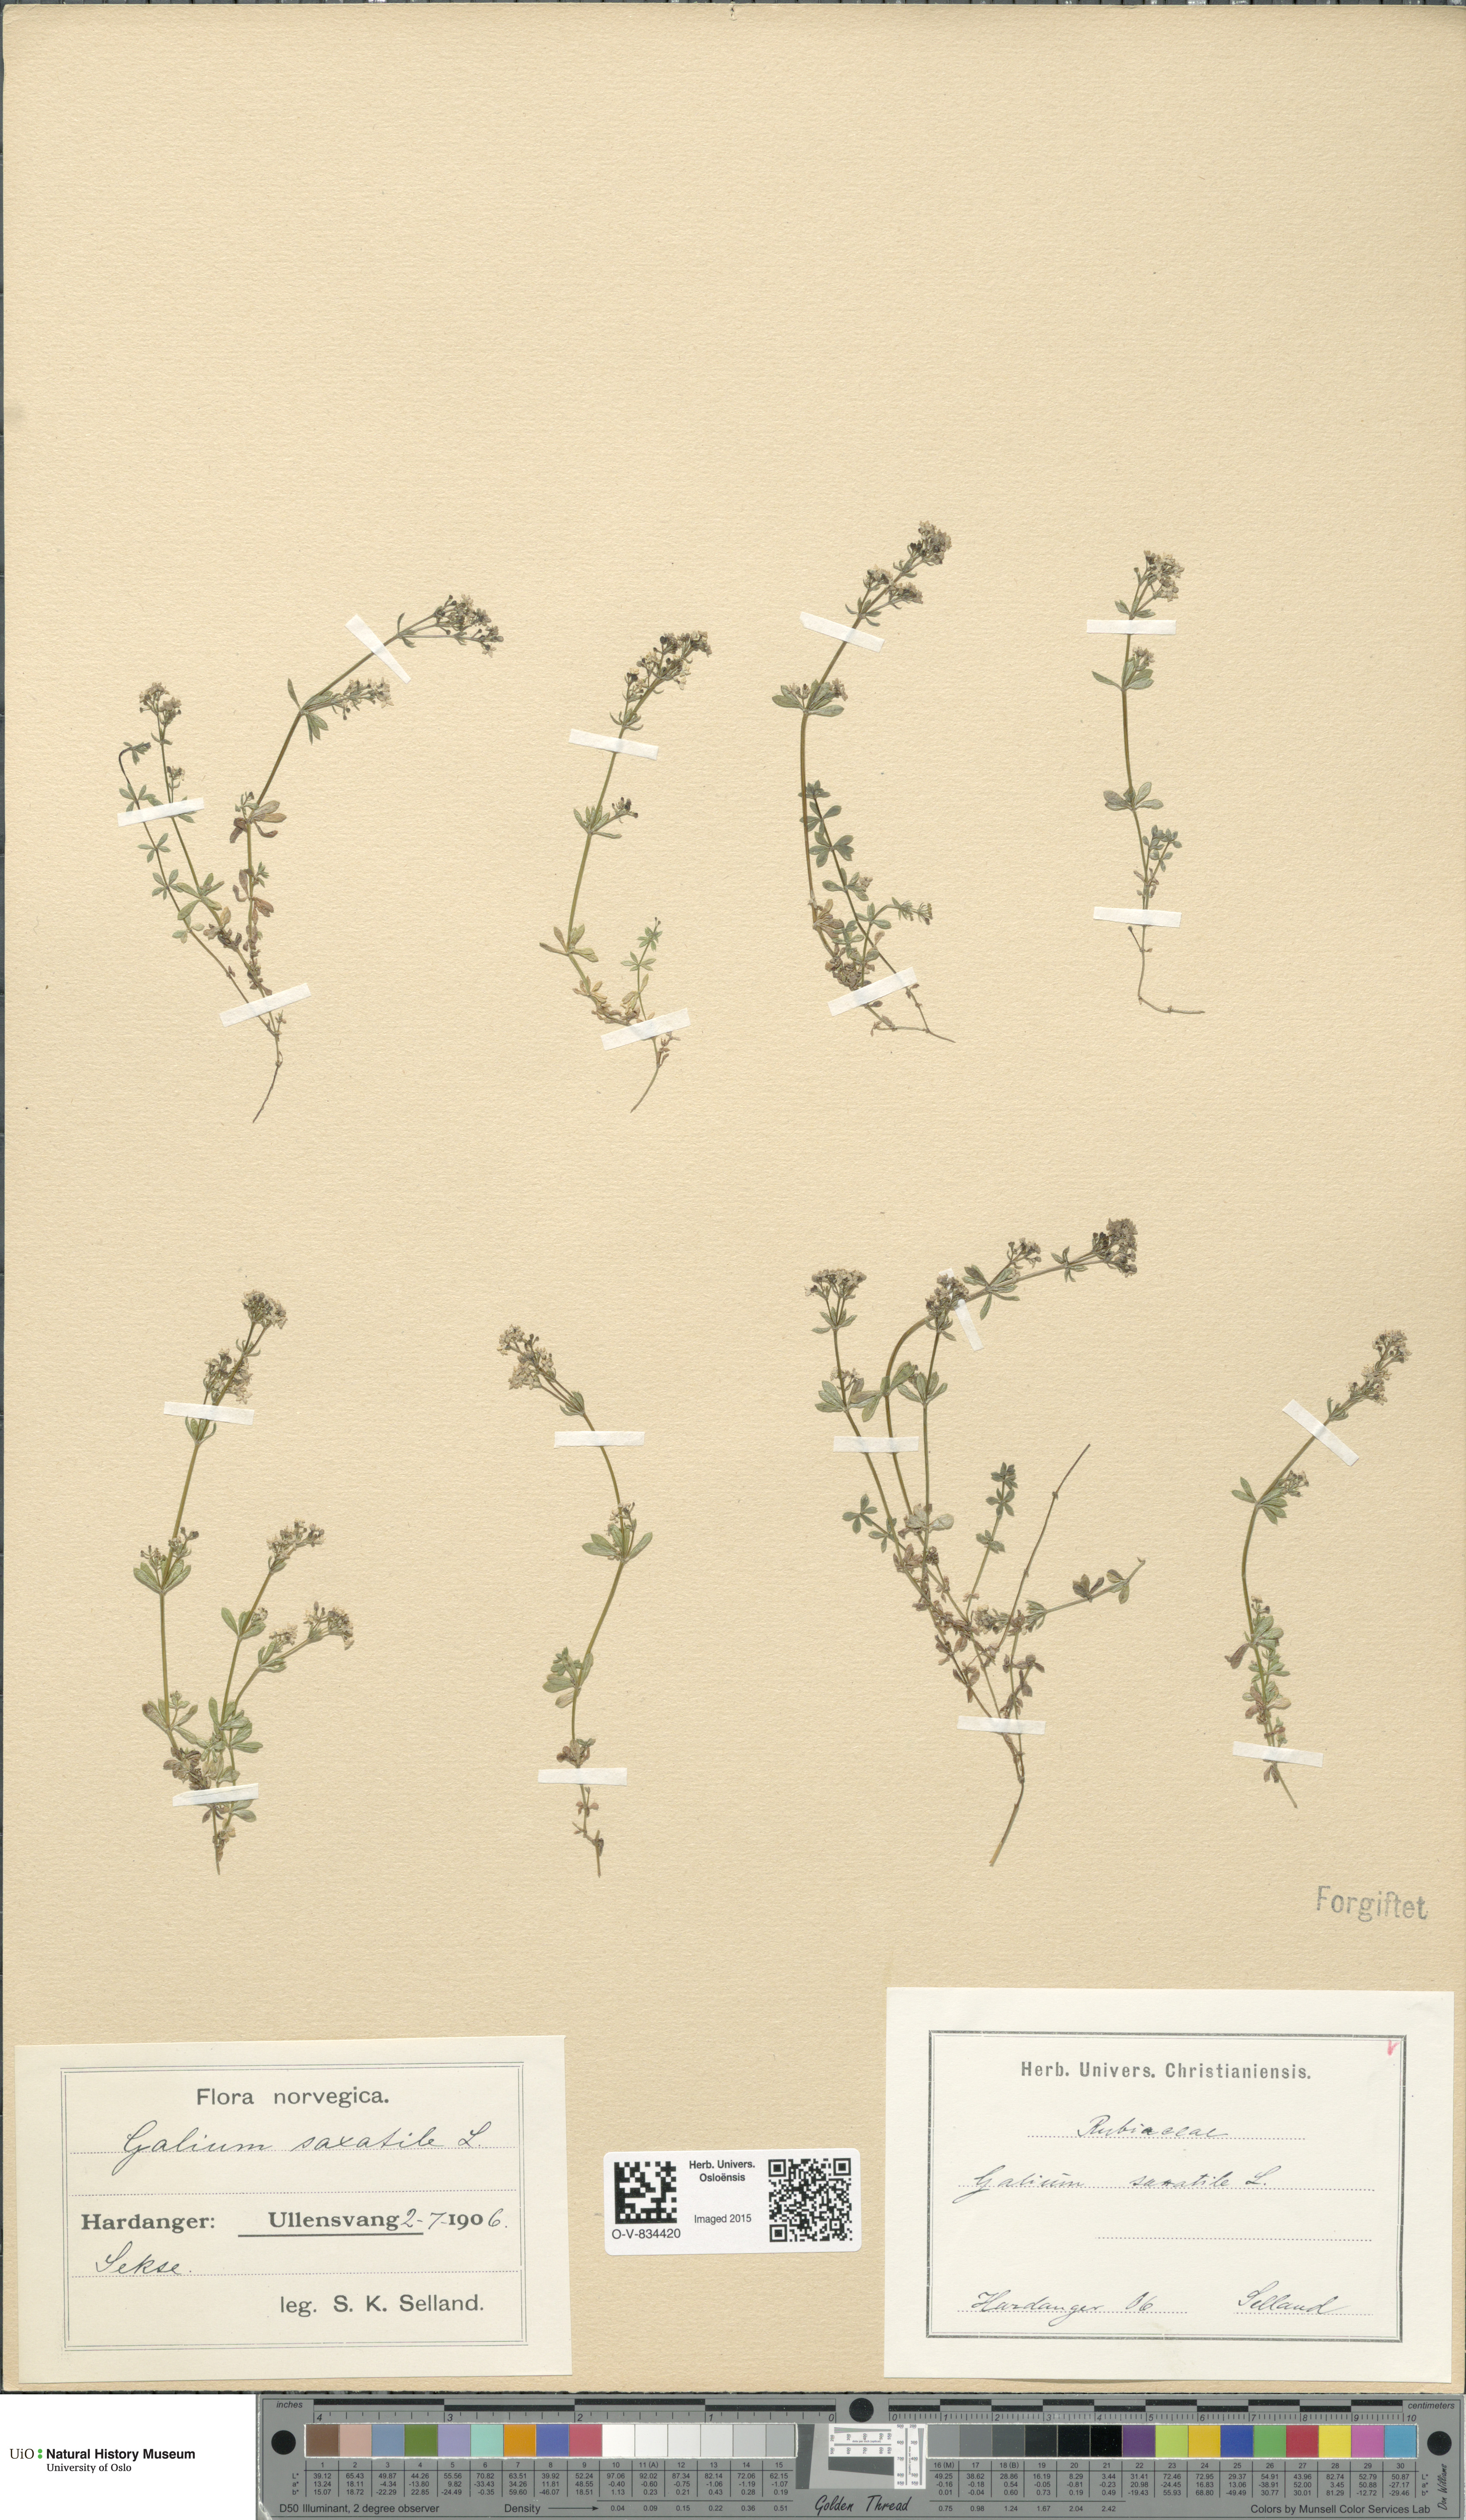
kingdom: Plantae
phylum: Tracheophyta
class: Magnoliopsida
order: Gentianales
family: Rubiaceae
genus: Galium
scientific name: Galium saxatile
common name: Heath bedstraw
